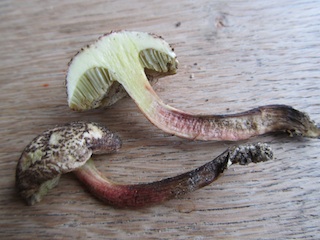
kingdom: Fungi
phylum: Basidiomycota
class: Agaricomycetes
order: Boletales
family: Boletaceae
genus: Xerocomellus
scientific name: Xerocomellus chrysenteron
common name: rødsprukken rørhat
